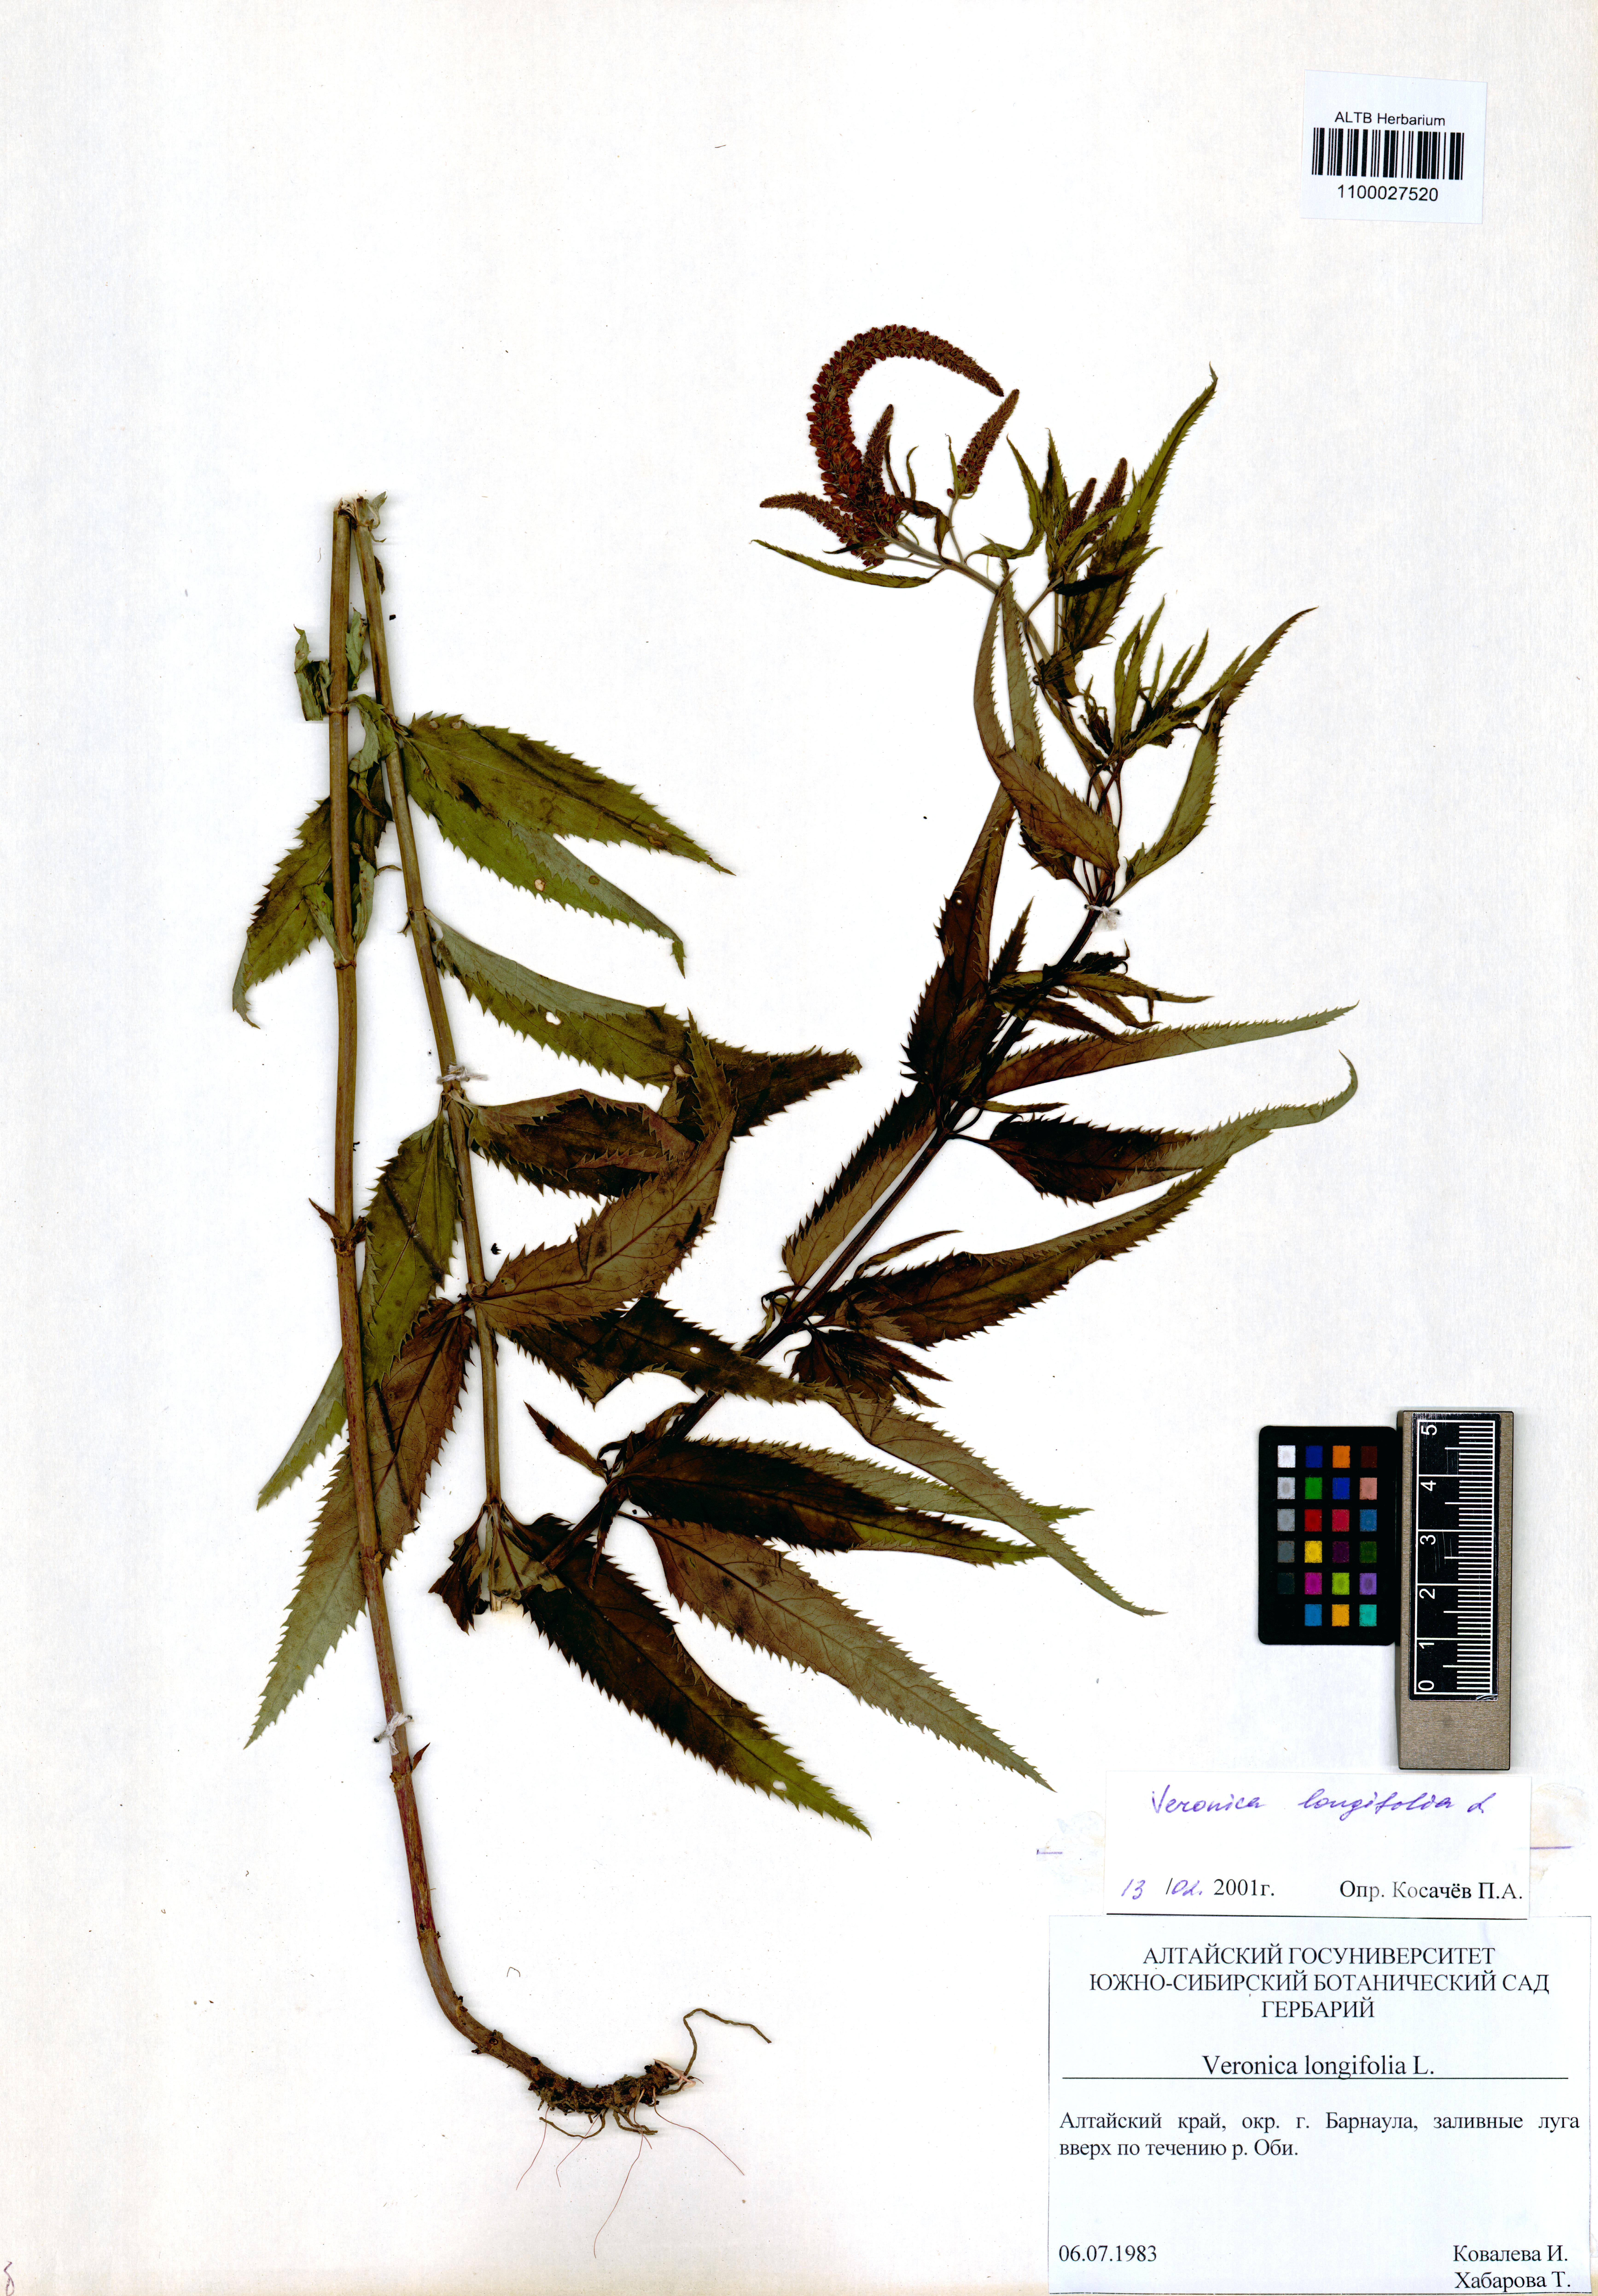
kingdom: Plantae
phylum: Tracheophyta
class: Magnoliopsida
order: Lamiales
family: Plantaginaceae
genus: Veronica
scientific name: Veronica longifolia
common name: Garden speedwell
